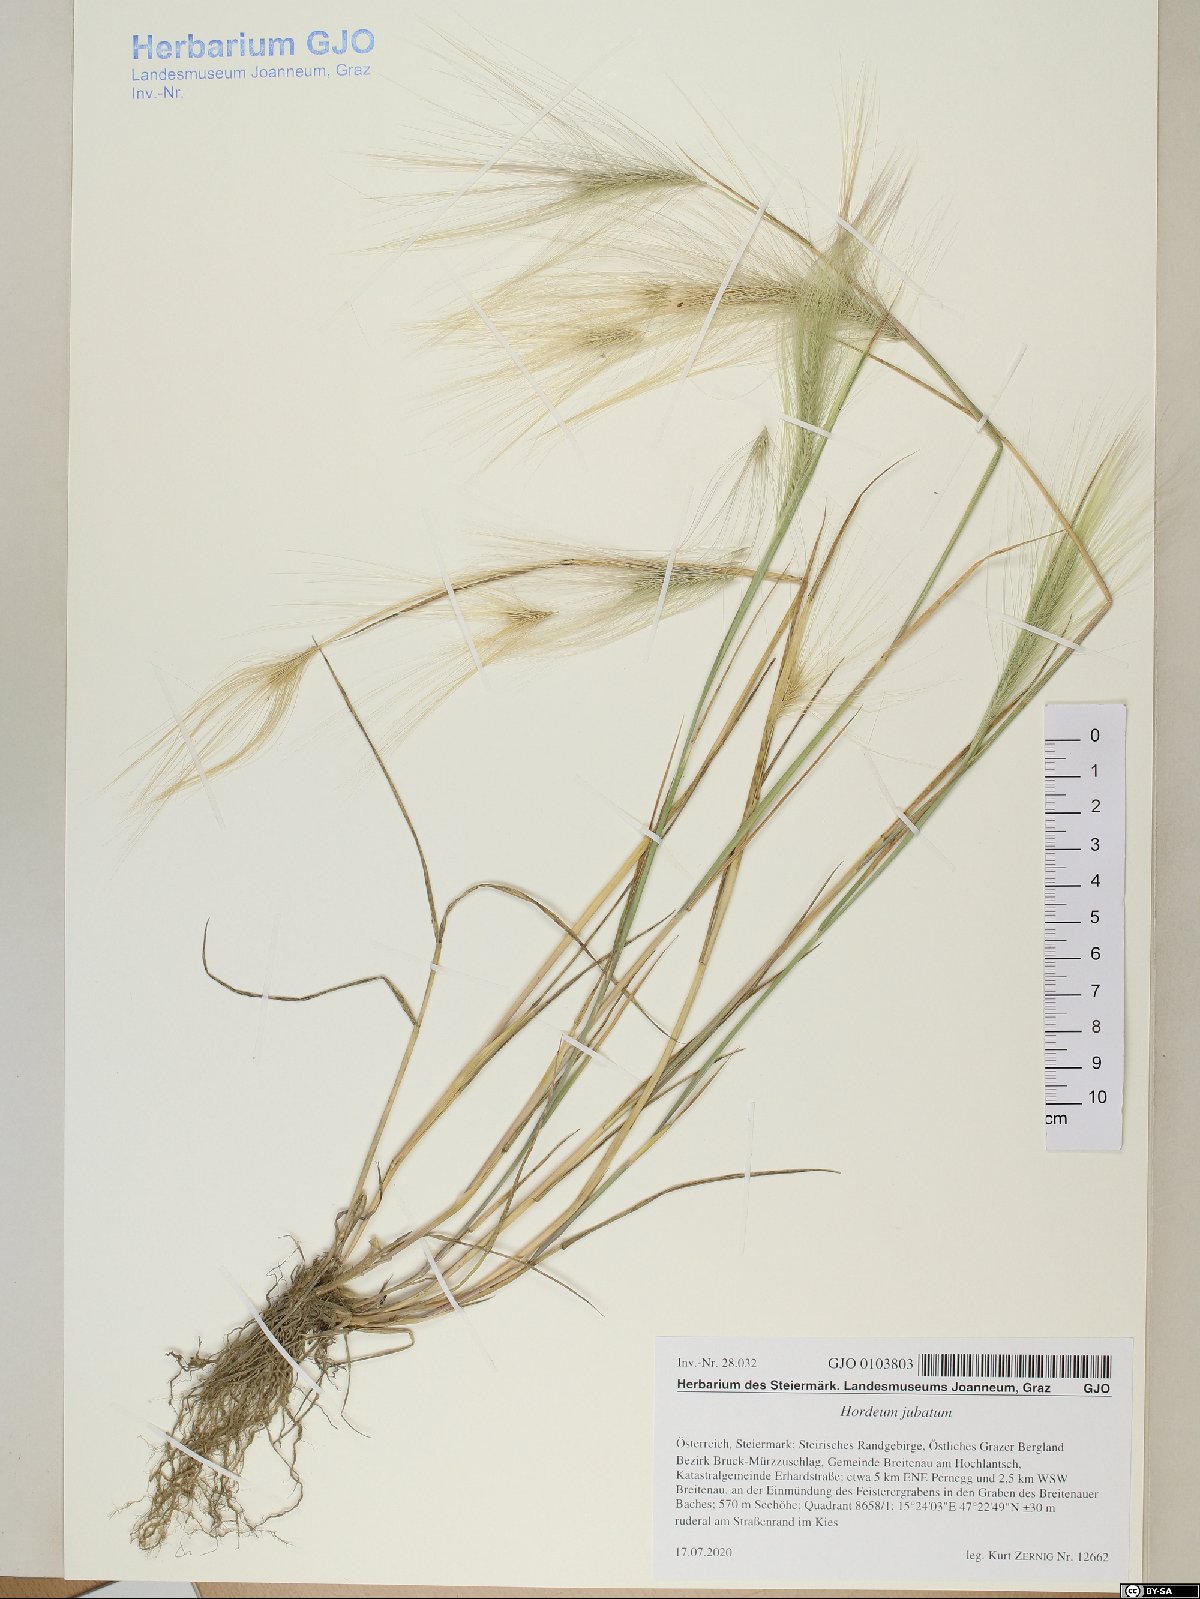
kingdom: Plantae
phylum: Tracheophyta
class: Liliopsida
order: Poales
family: Poaceae
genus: Hordeum
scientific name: Hordeum jubatum
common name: Foxtail barley
